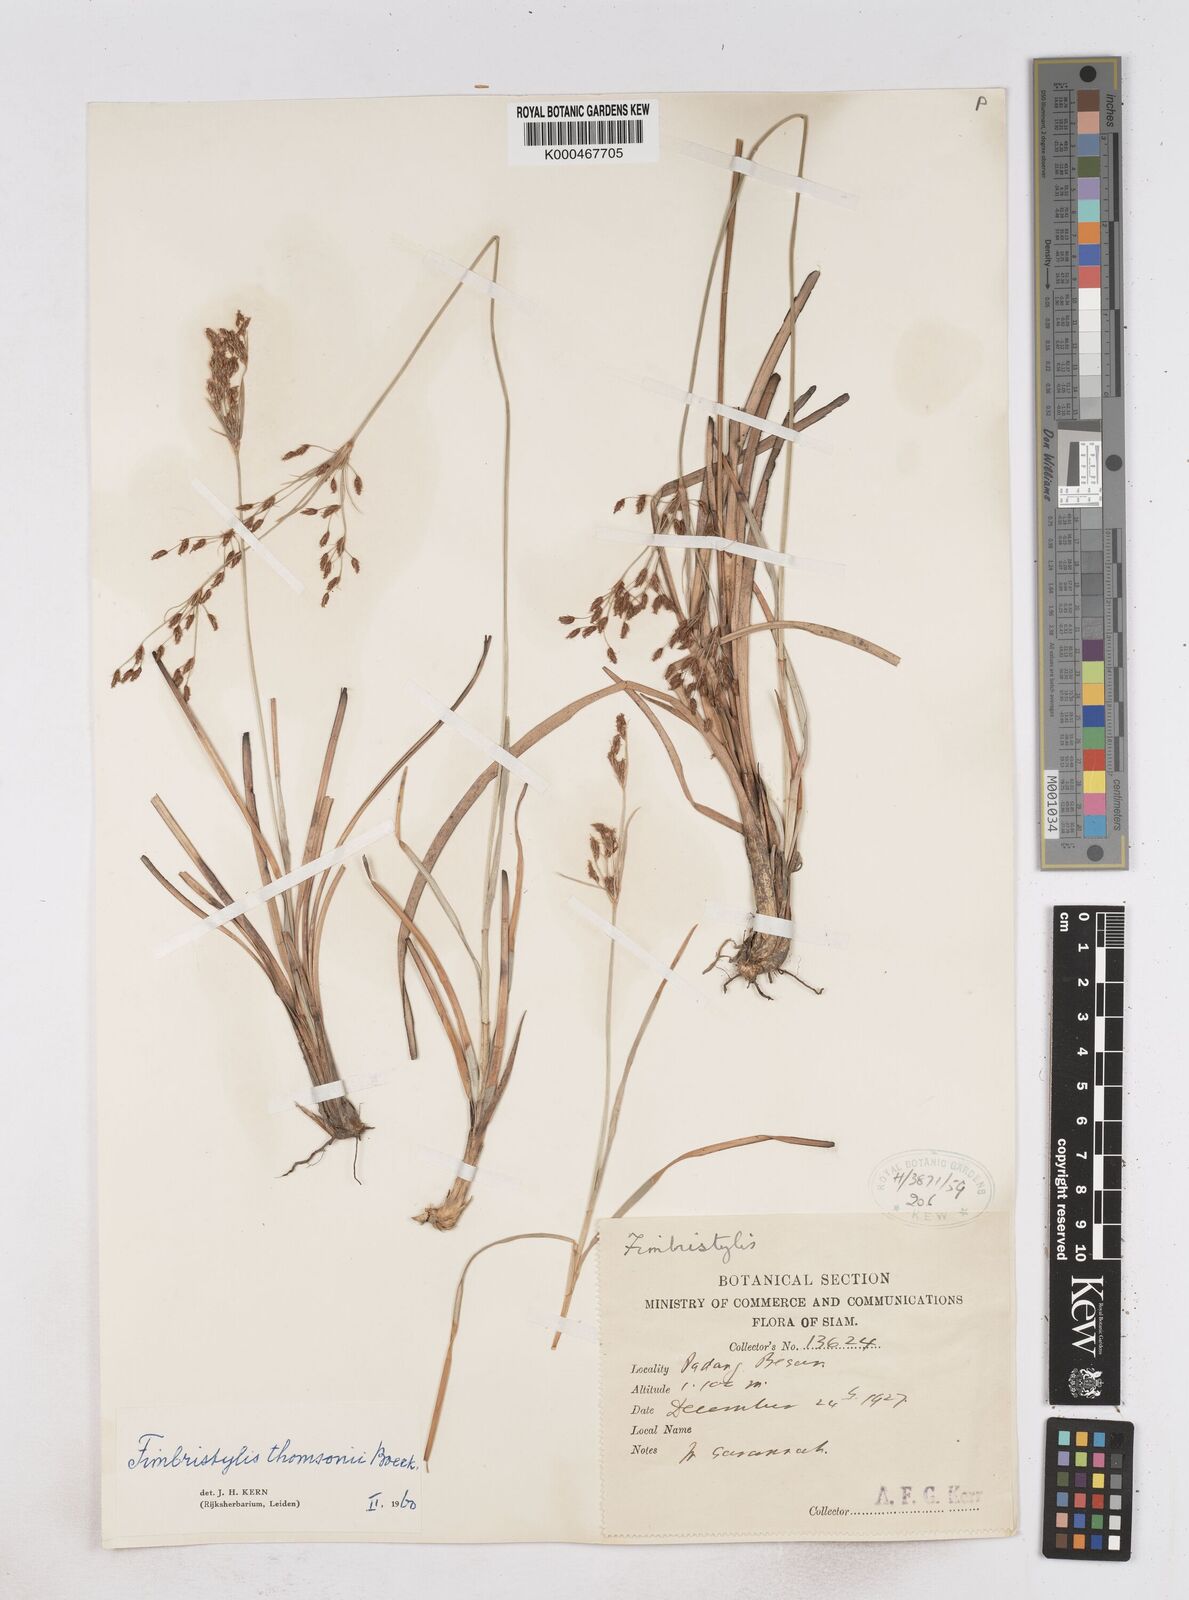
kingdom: Plantae
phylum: Tracheophyta
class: Liliopsida
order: Poales
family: Cyperaceae
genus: Fimbristylis
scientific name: Fimbristylis thomsonii
